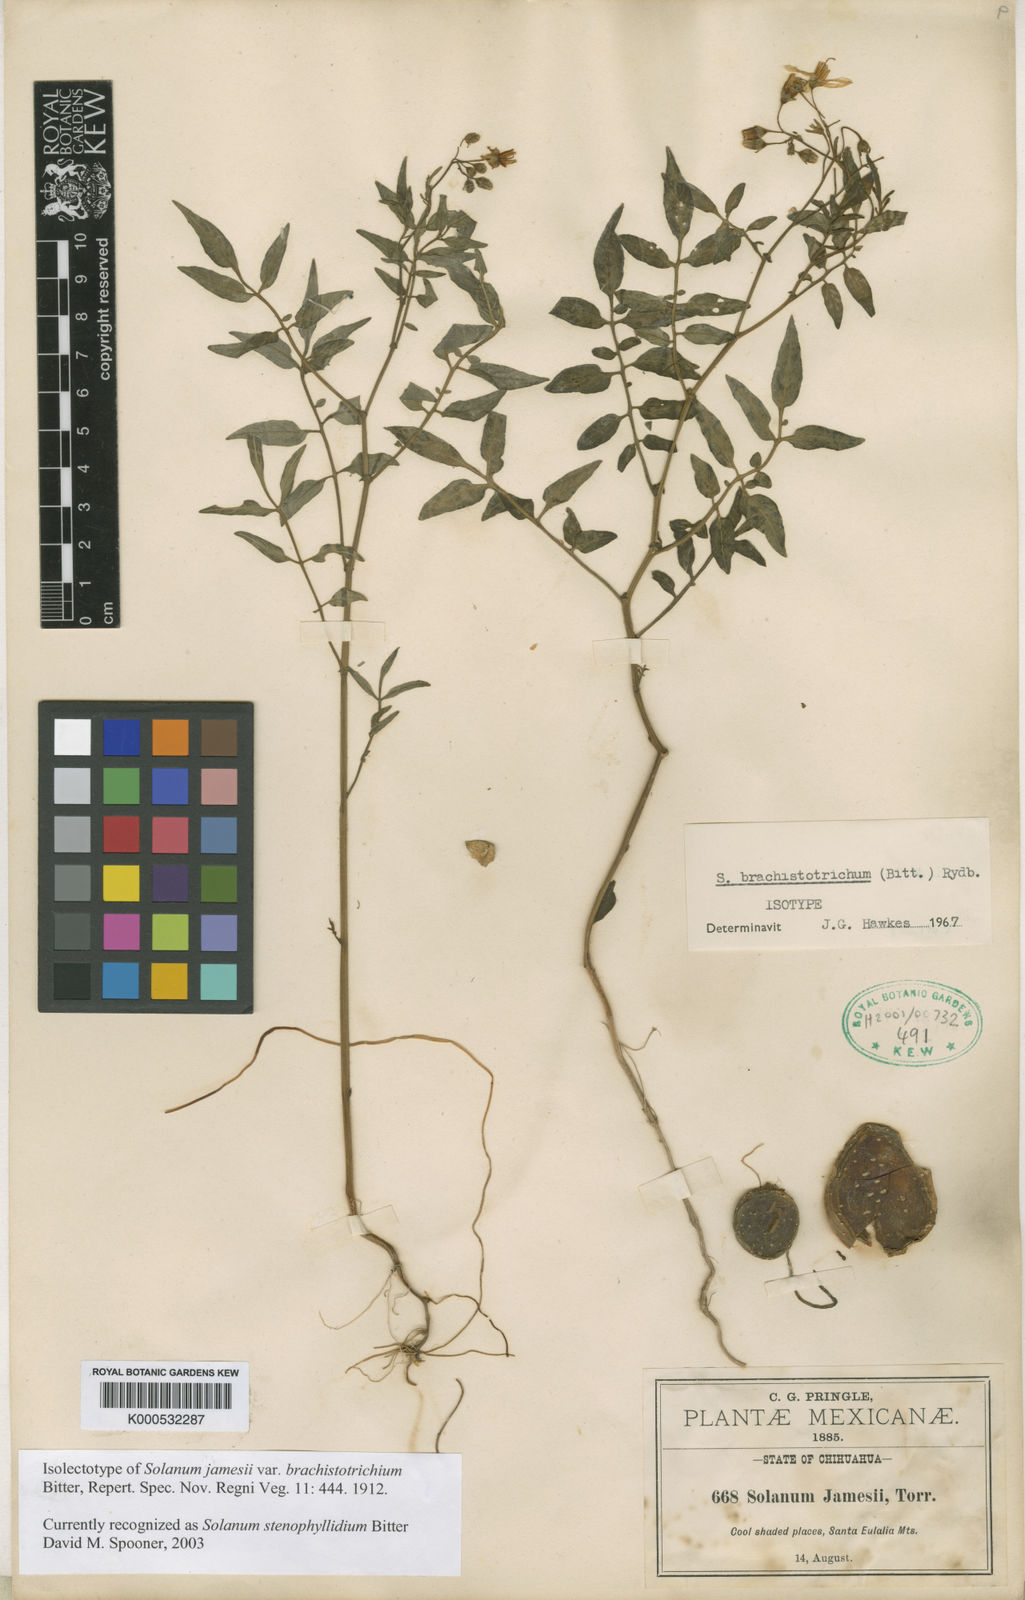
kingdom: Plantae
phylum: Tracheophyta
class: Magnoliopsida
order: Solanales
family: Solanaceae
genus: Solanum
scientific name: Solanum jamesii
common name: Wild potato
